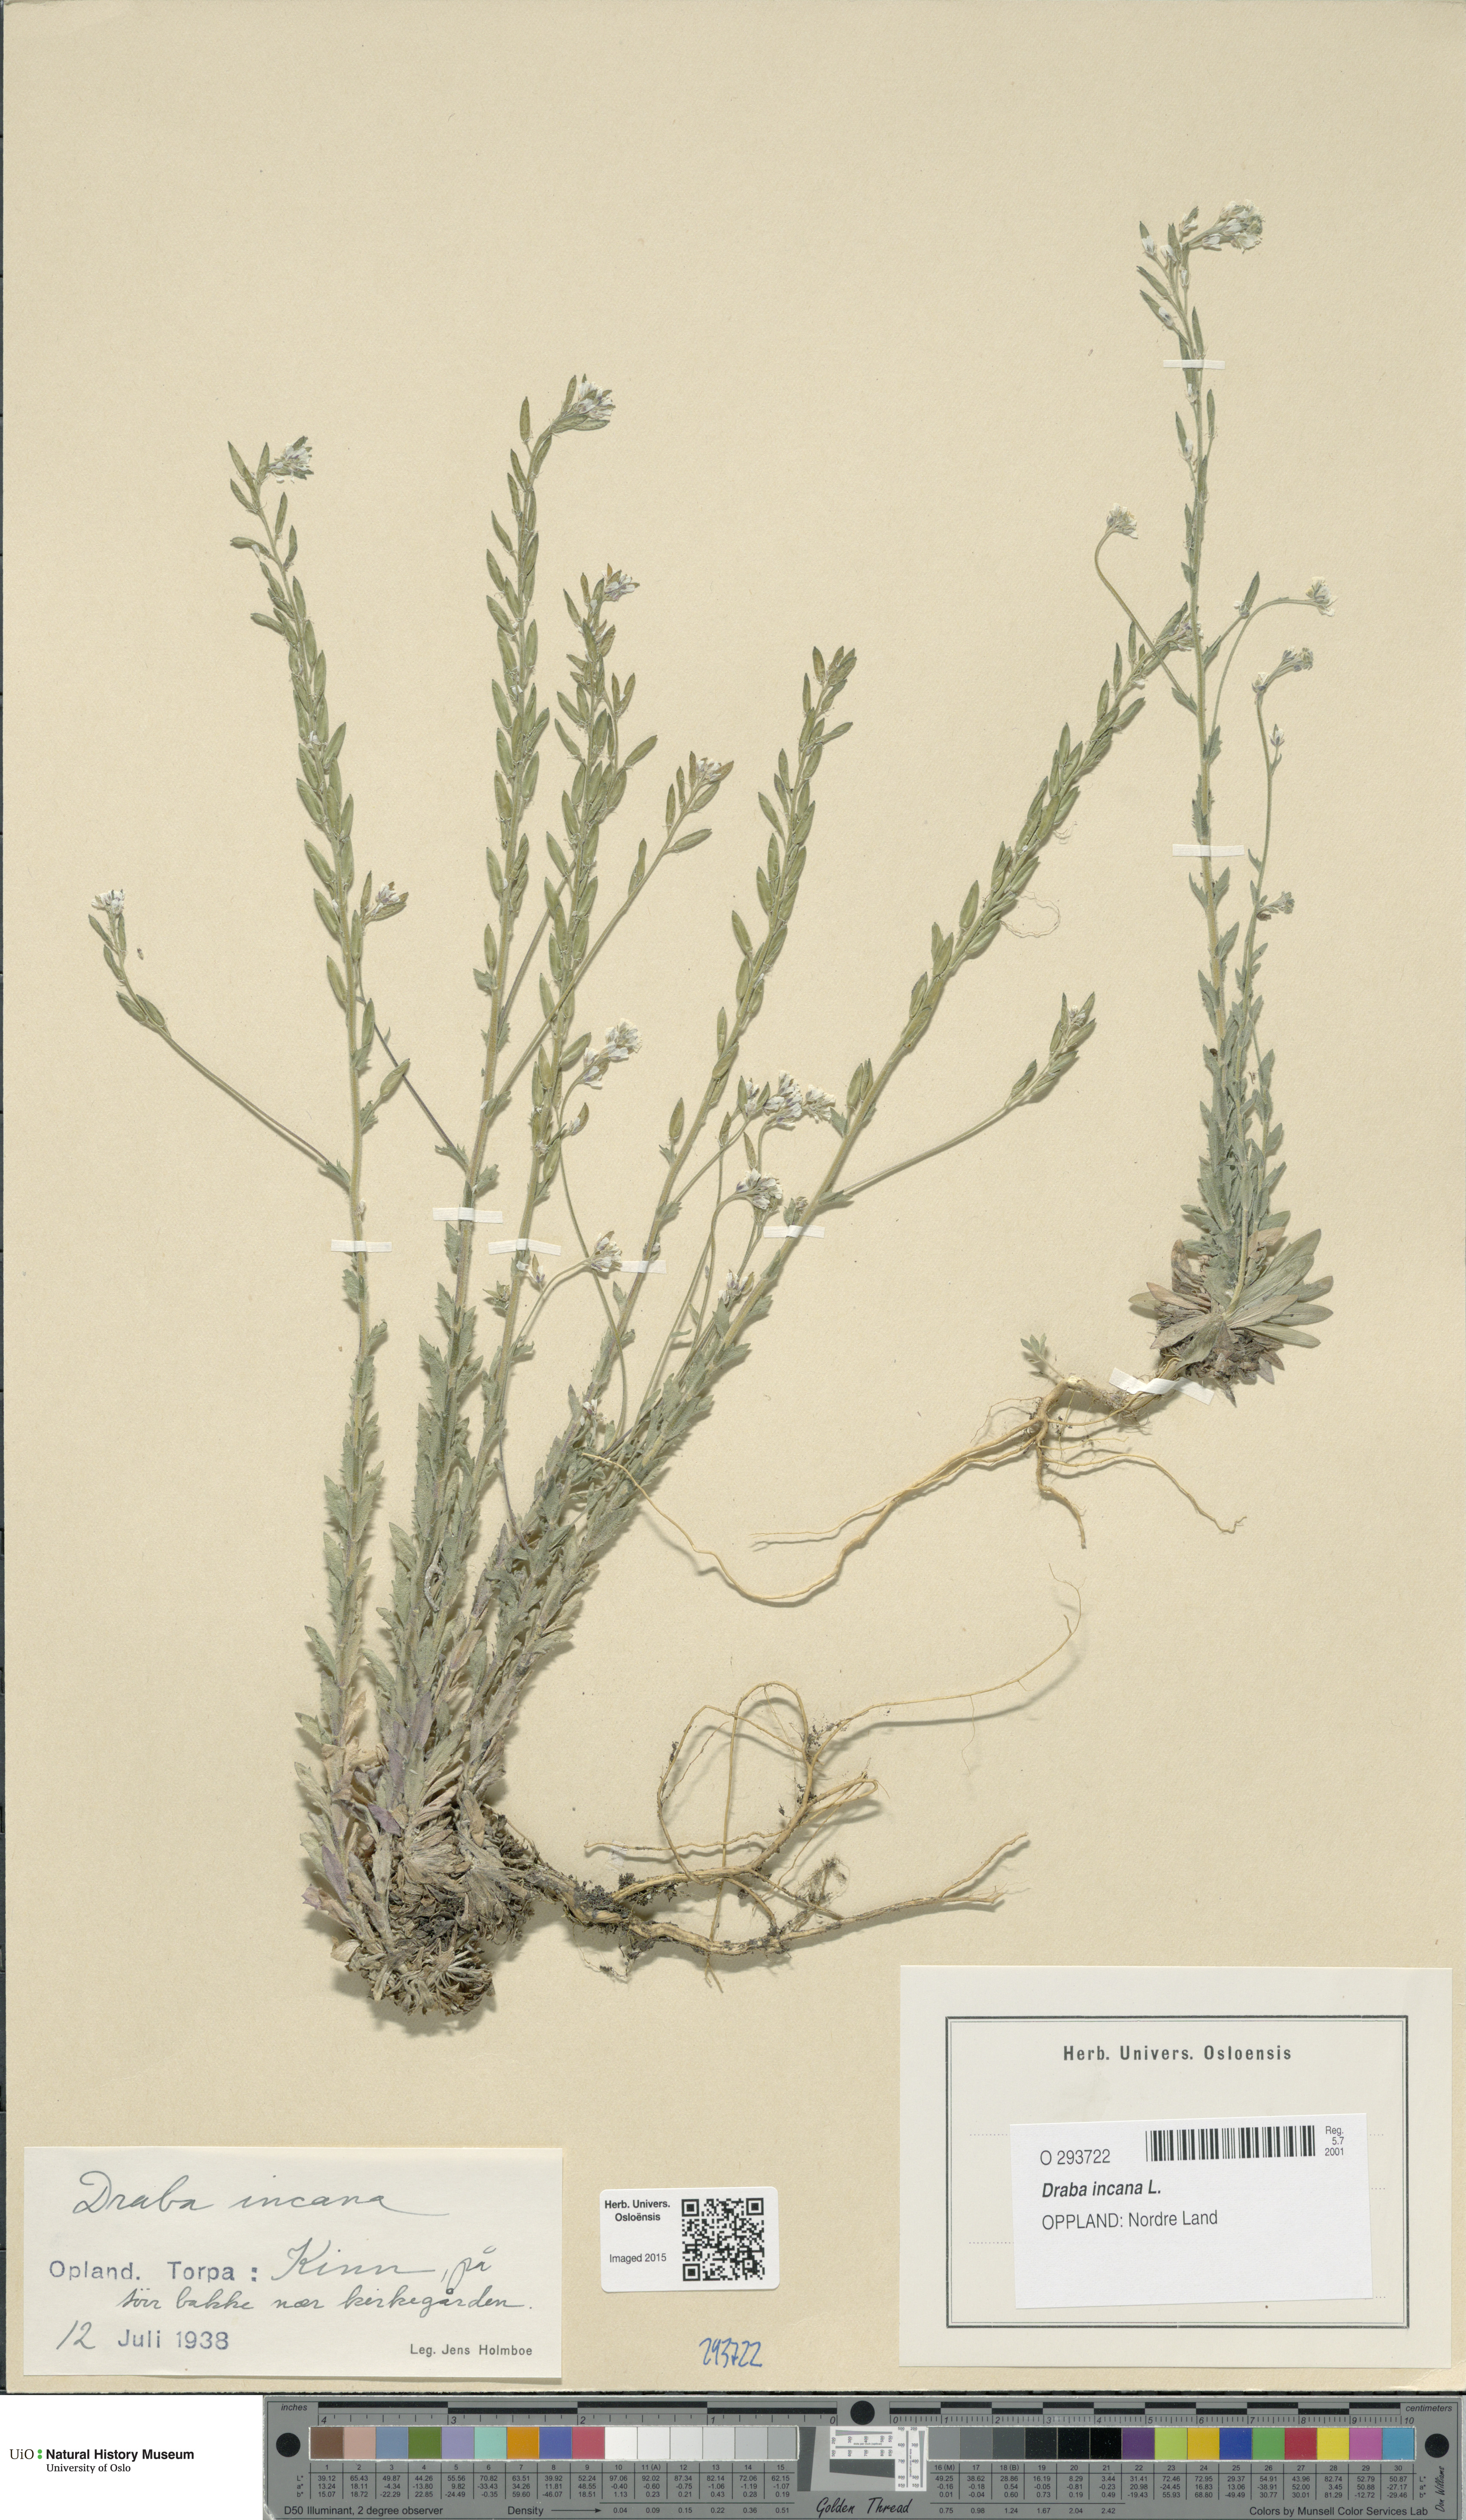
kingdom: Plantae
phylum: Tracheophyta
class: Magnoliopsida
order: Brassicales
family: Brassicaceae
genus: Draba
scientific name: Draba incana
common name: Hoary whitlow-grass
